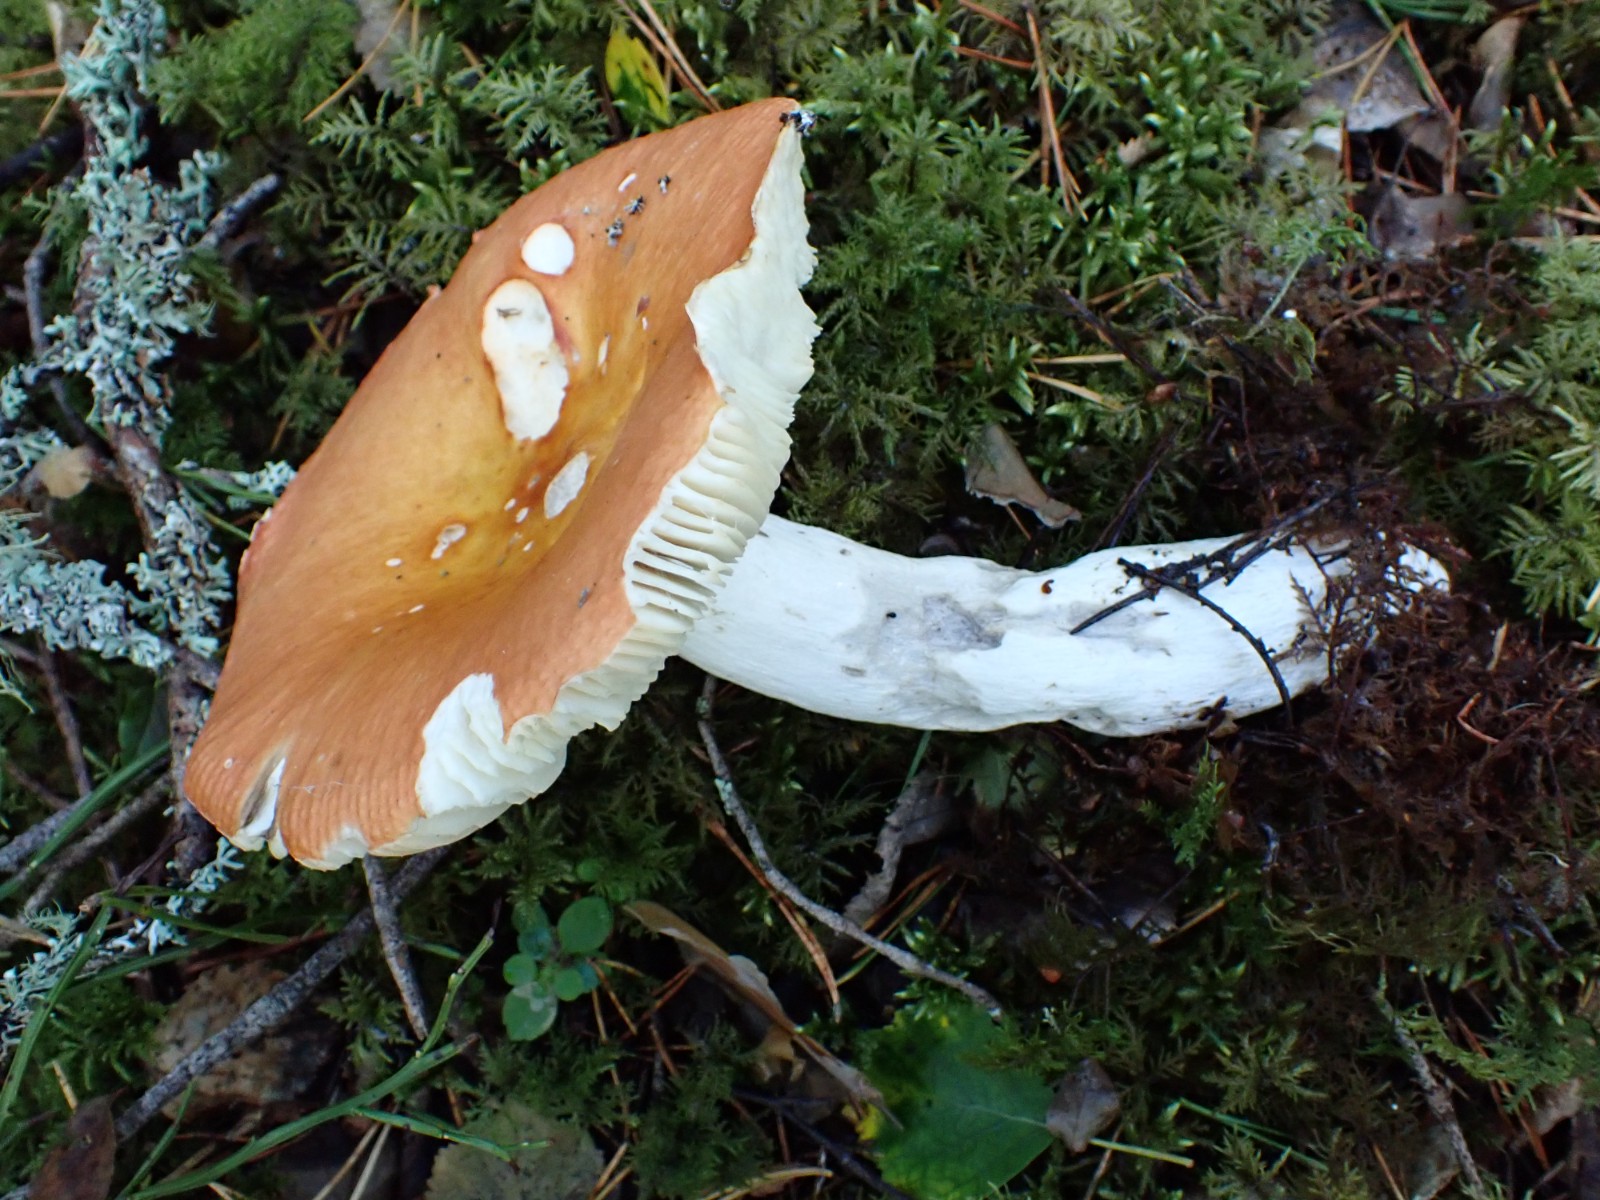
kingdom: Fungi
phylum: Basidiomycota
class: Agaricomycetes
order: Russulales
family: Russulaceae
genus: Russula
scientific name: Russula decolorans
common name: afblegende skørhat
